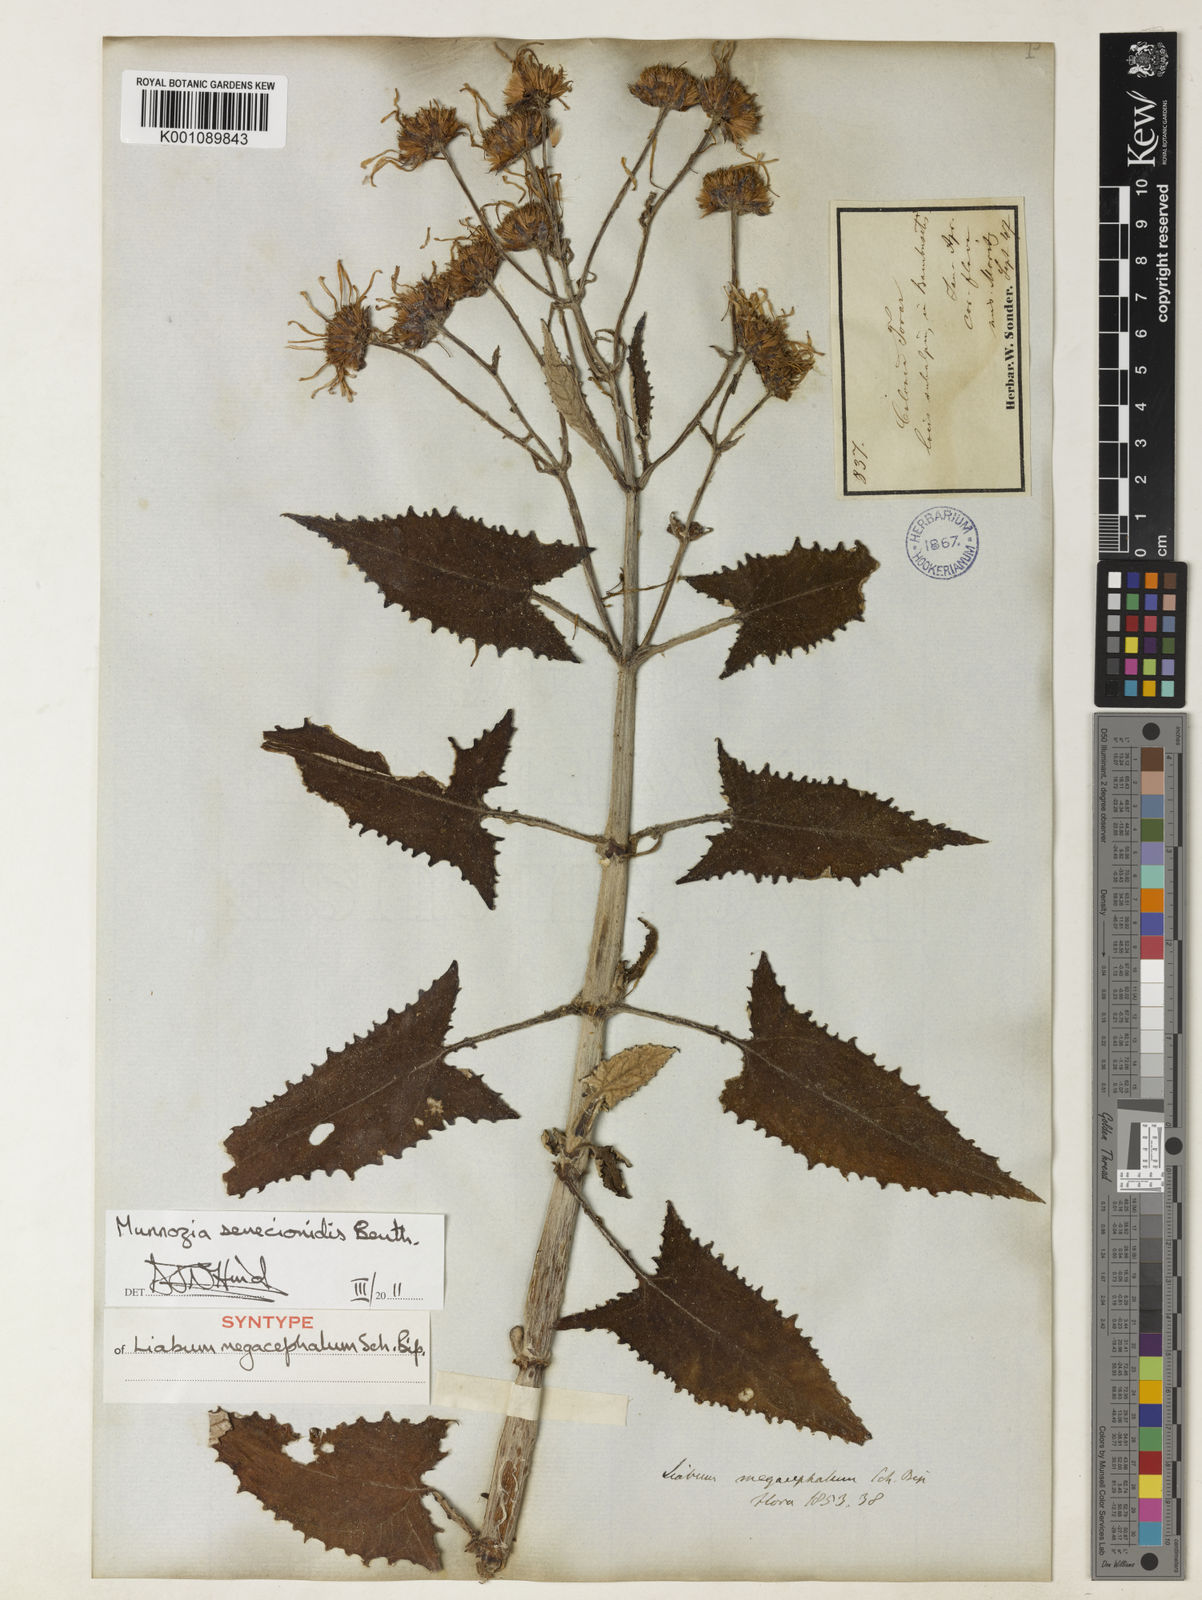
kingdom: Plantae
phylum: Tracheophyta
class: Magnoliopsida
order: Asterales
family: Asteraceae
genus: Munnozia
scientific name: Munnozia senecionidis
